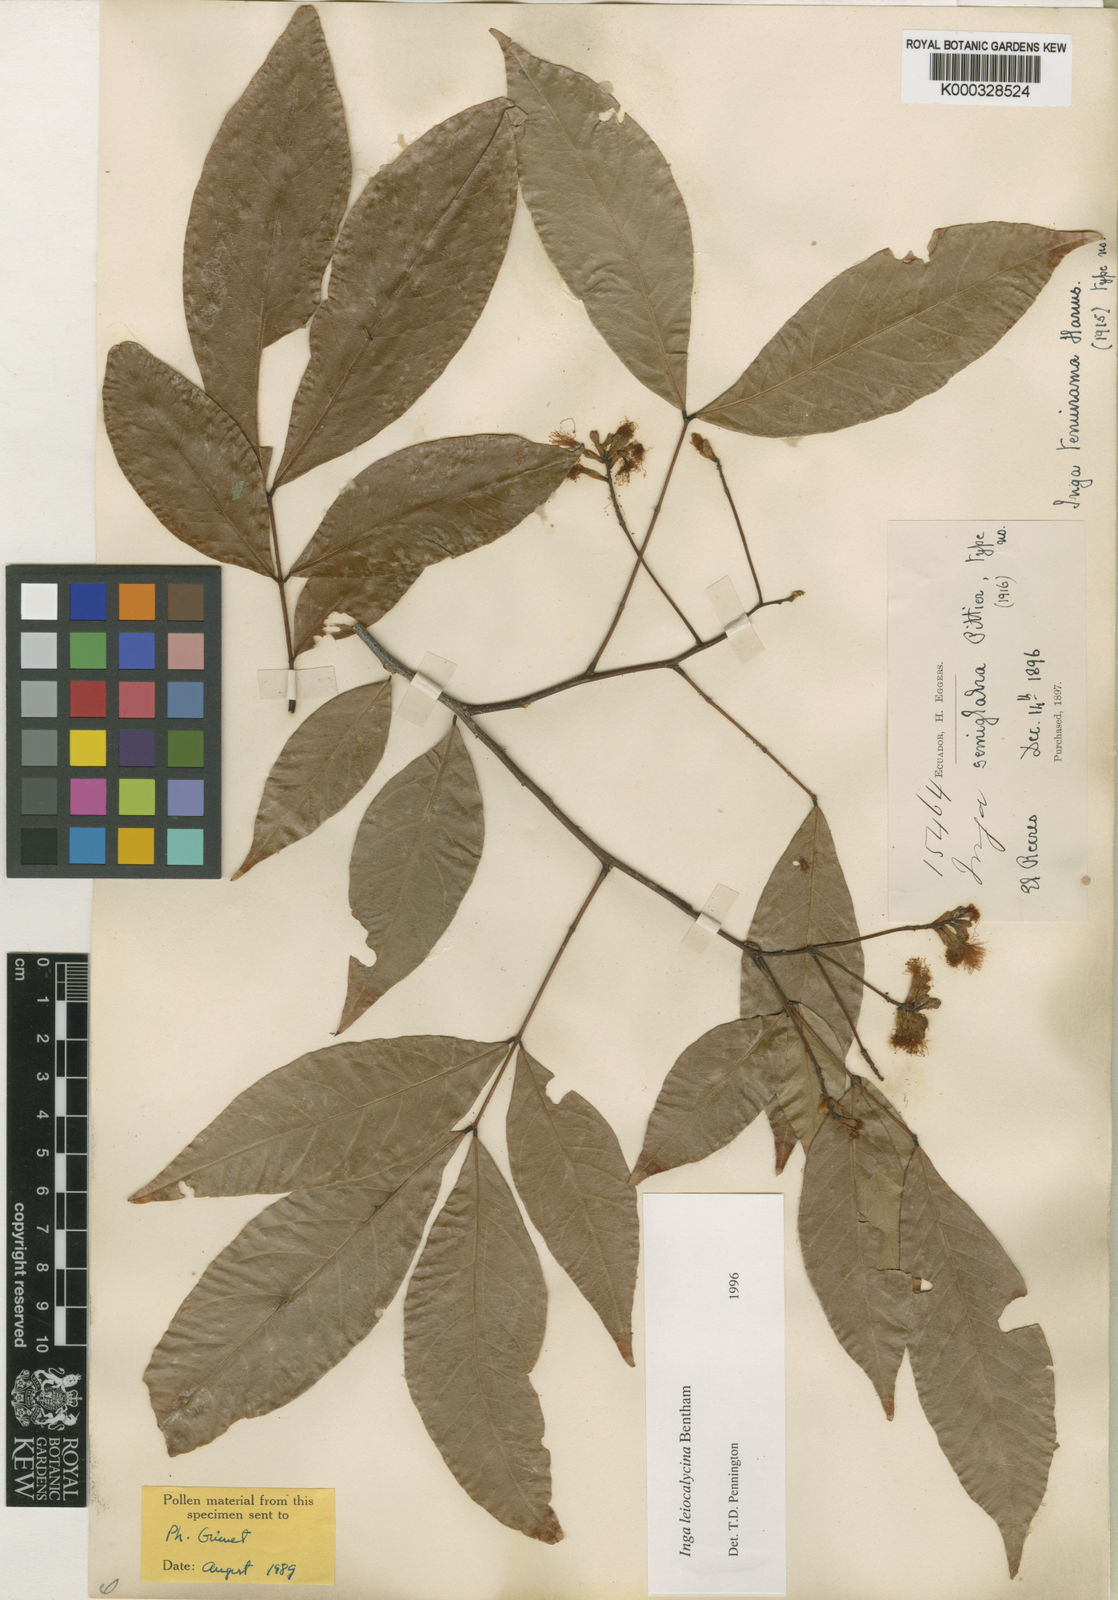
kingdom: Plantae
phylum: Tracheophyta
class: Magnoliopsida
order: Fabales
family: Fabaceae
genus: Inga
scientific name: Inga laevigata
